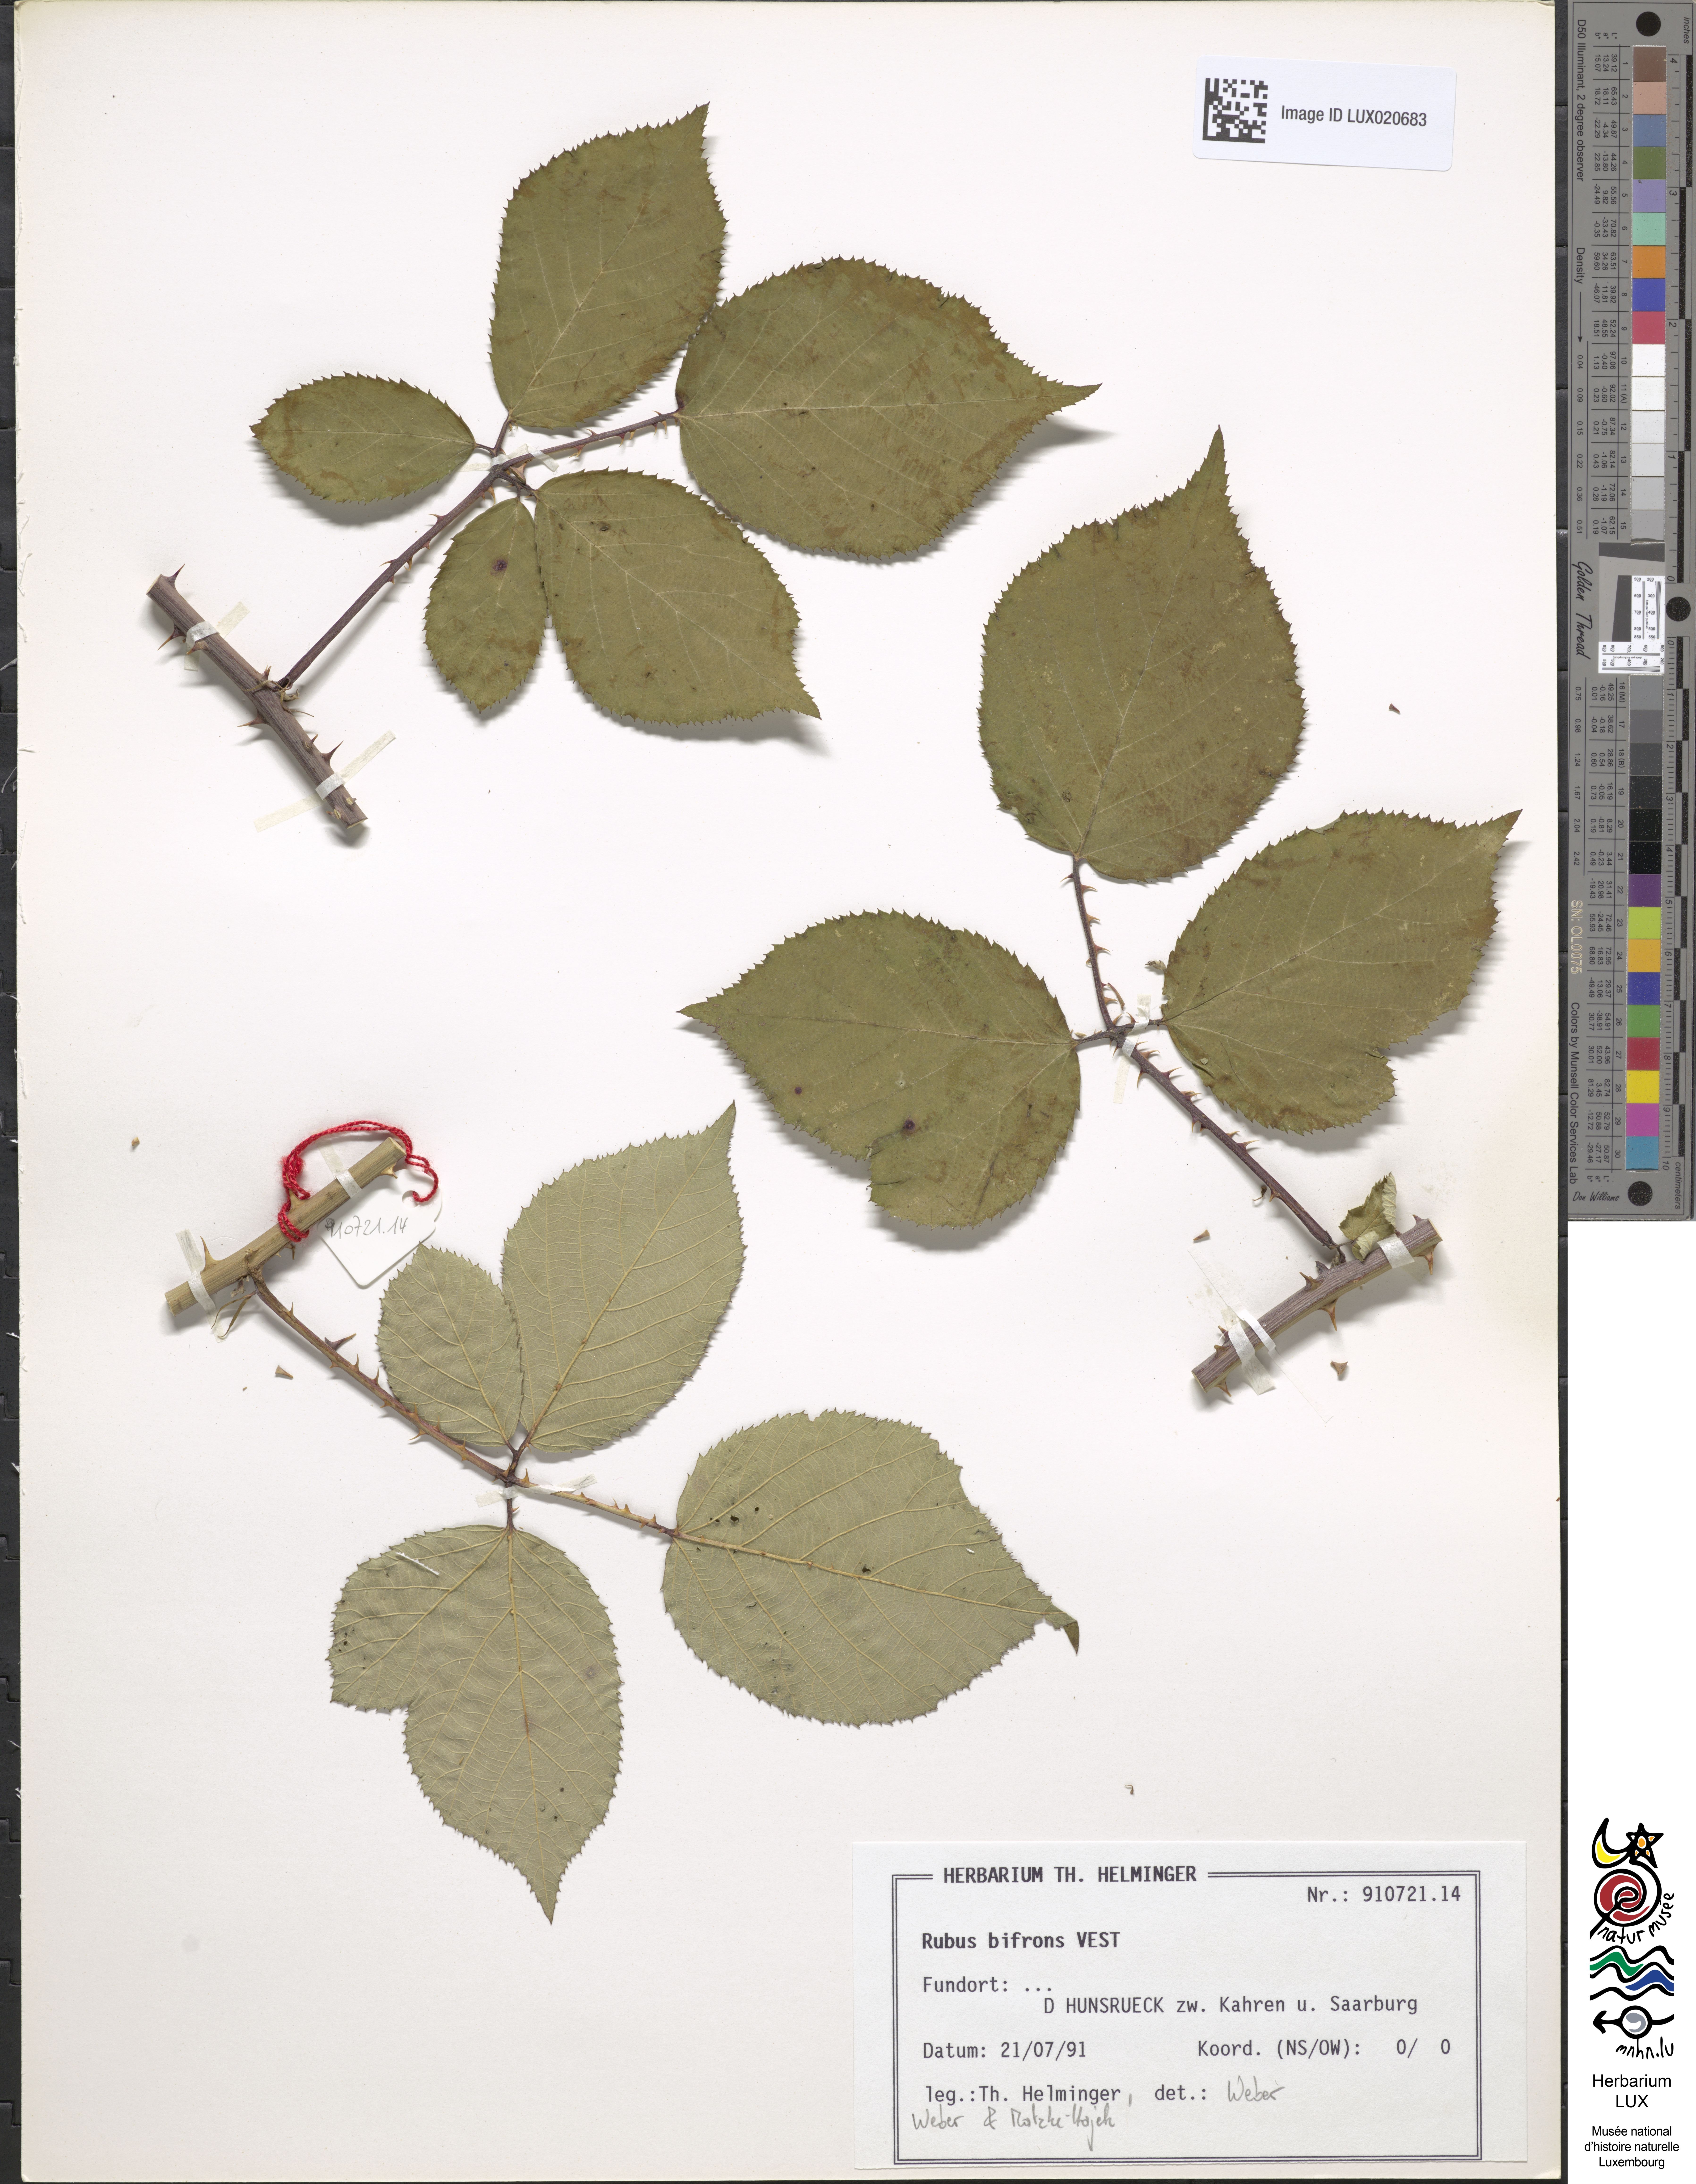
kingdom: Plantae
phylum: Tracheophyta
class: Magnoliopsida
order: Rosales
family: Rosaceae
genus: Rubus
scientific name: Rubus bifrons
